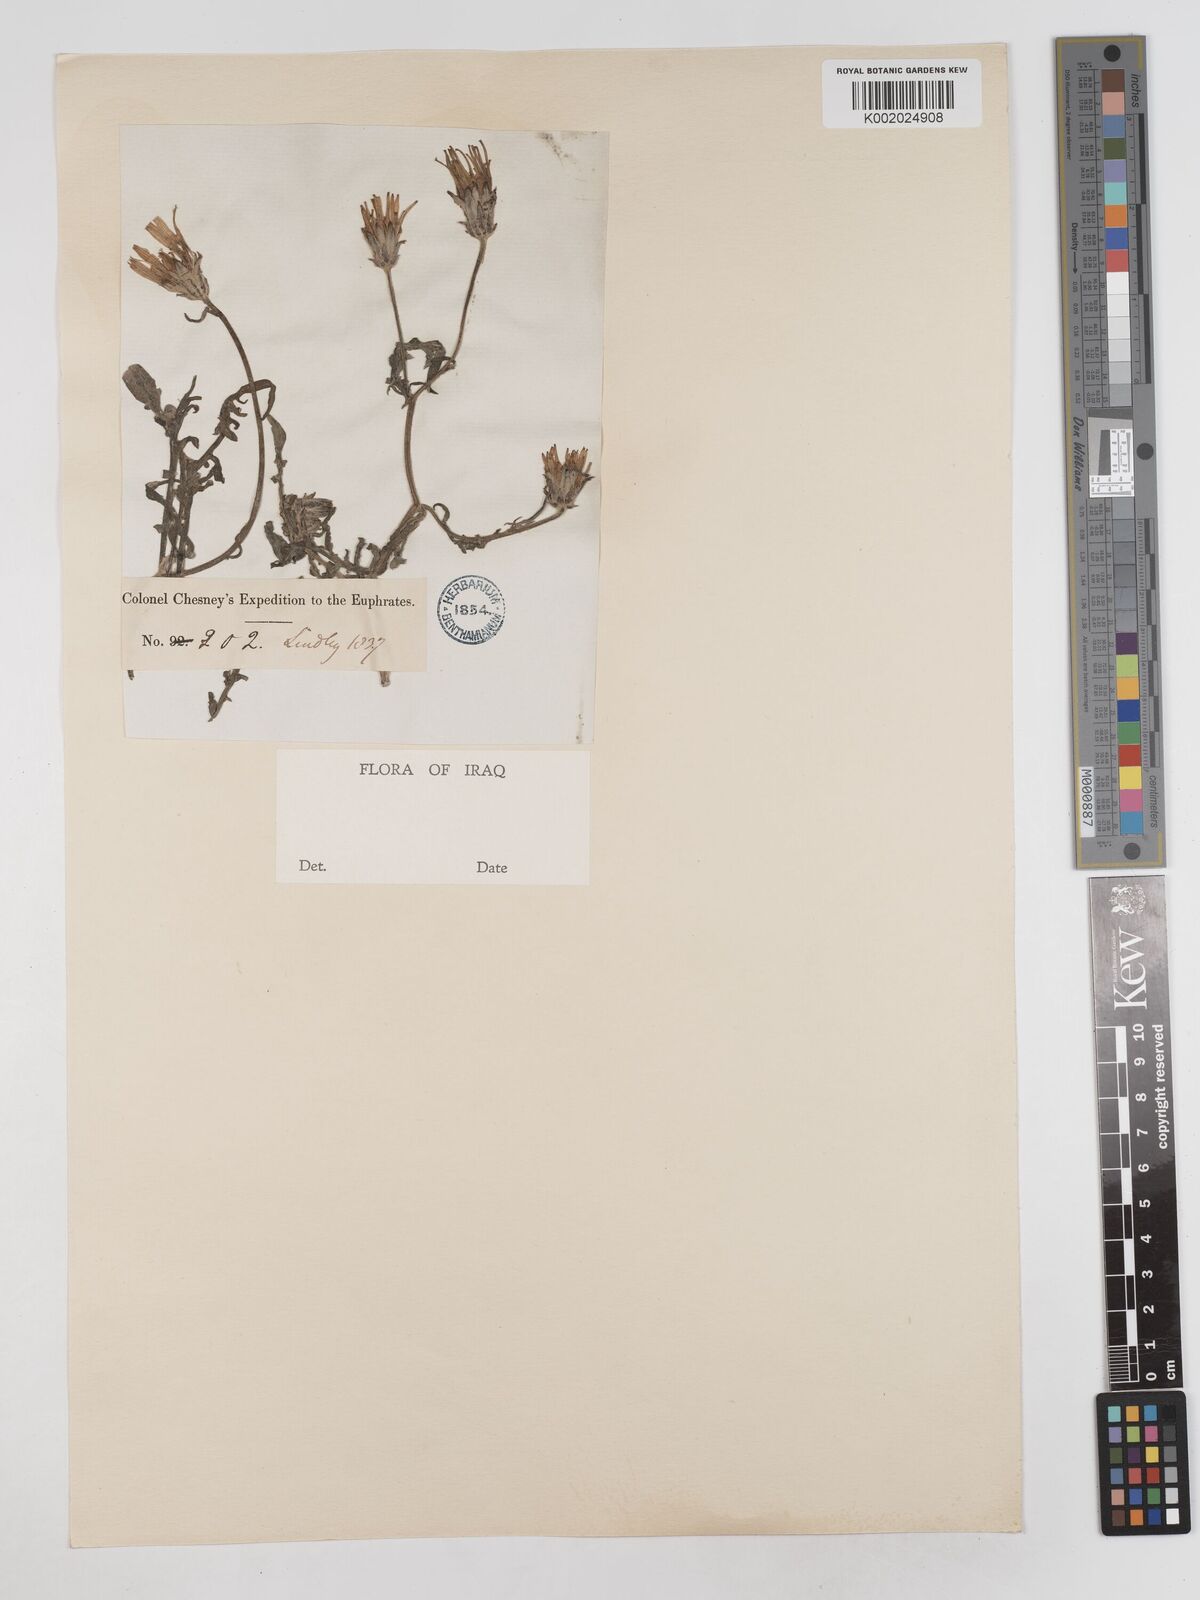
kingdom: Plantae
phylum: Tracheophyta
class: Magnoliopsida
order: Asterales
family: Asteraceae
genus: Scorzonera
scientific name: Scorzonera cana
